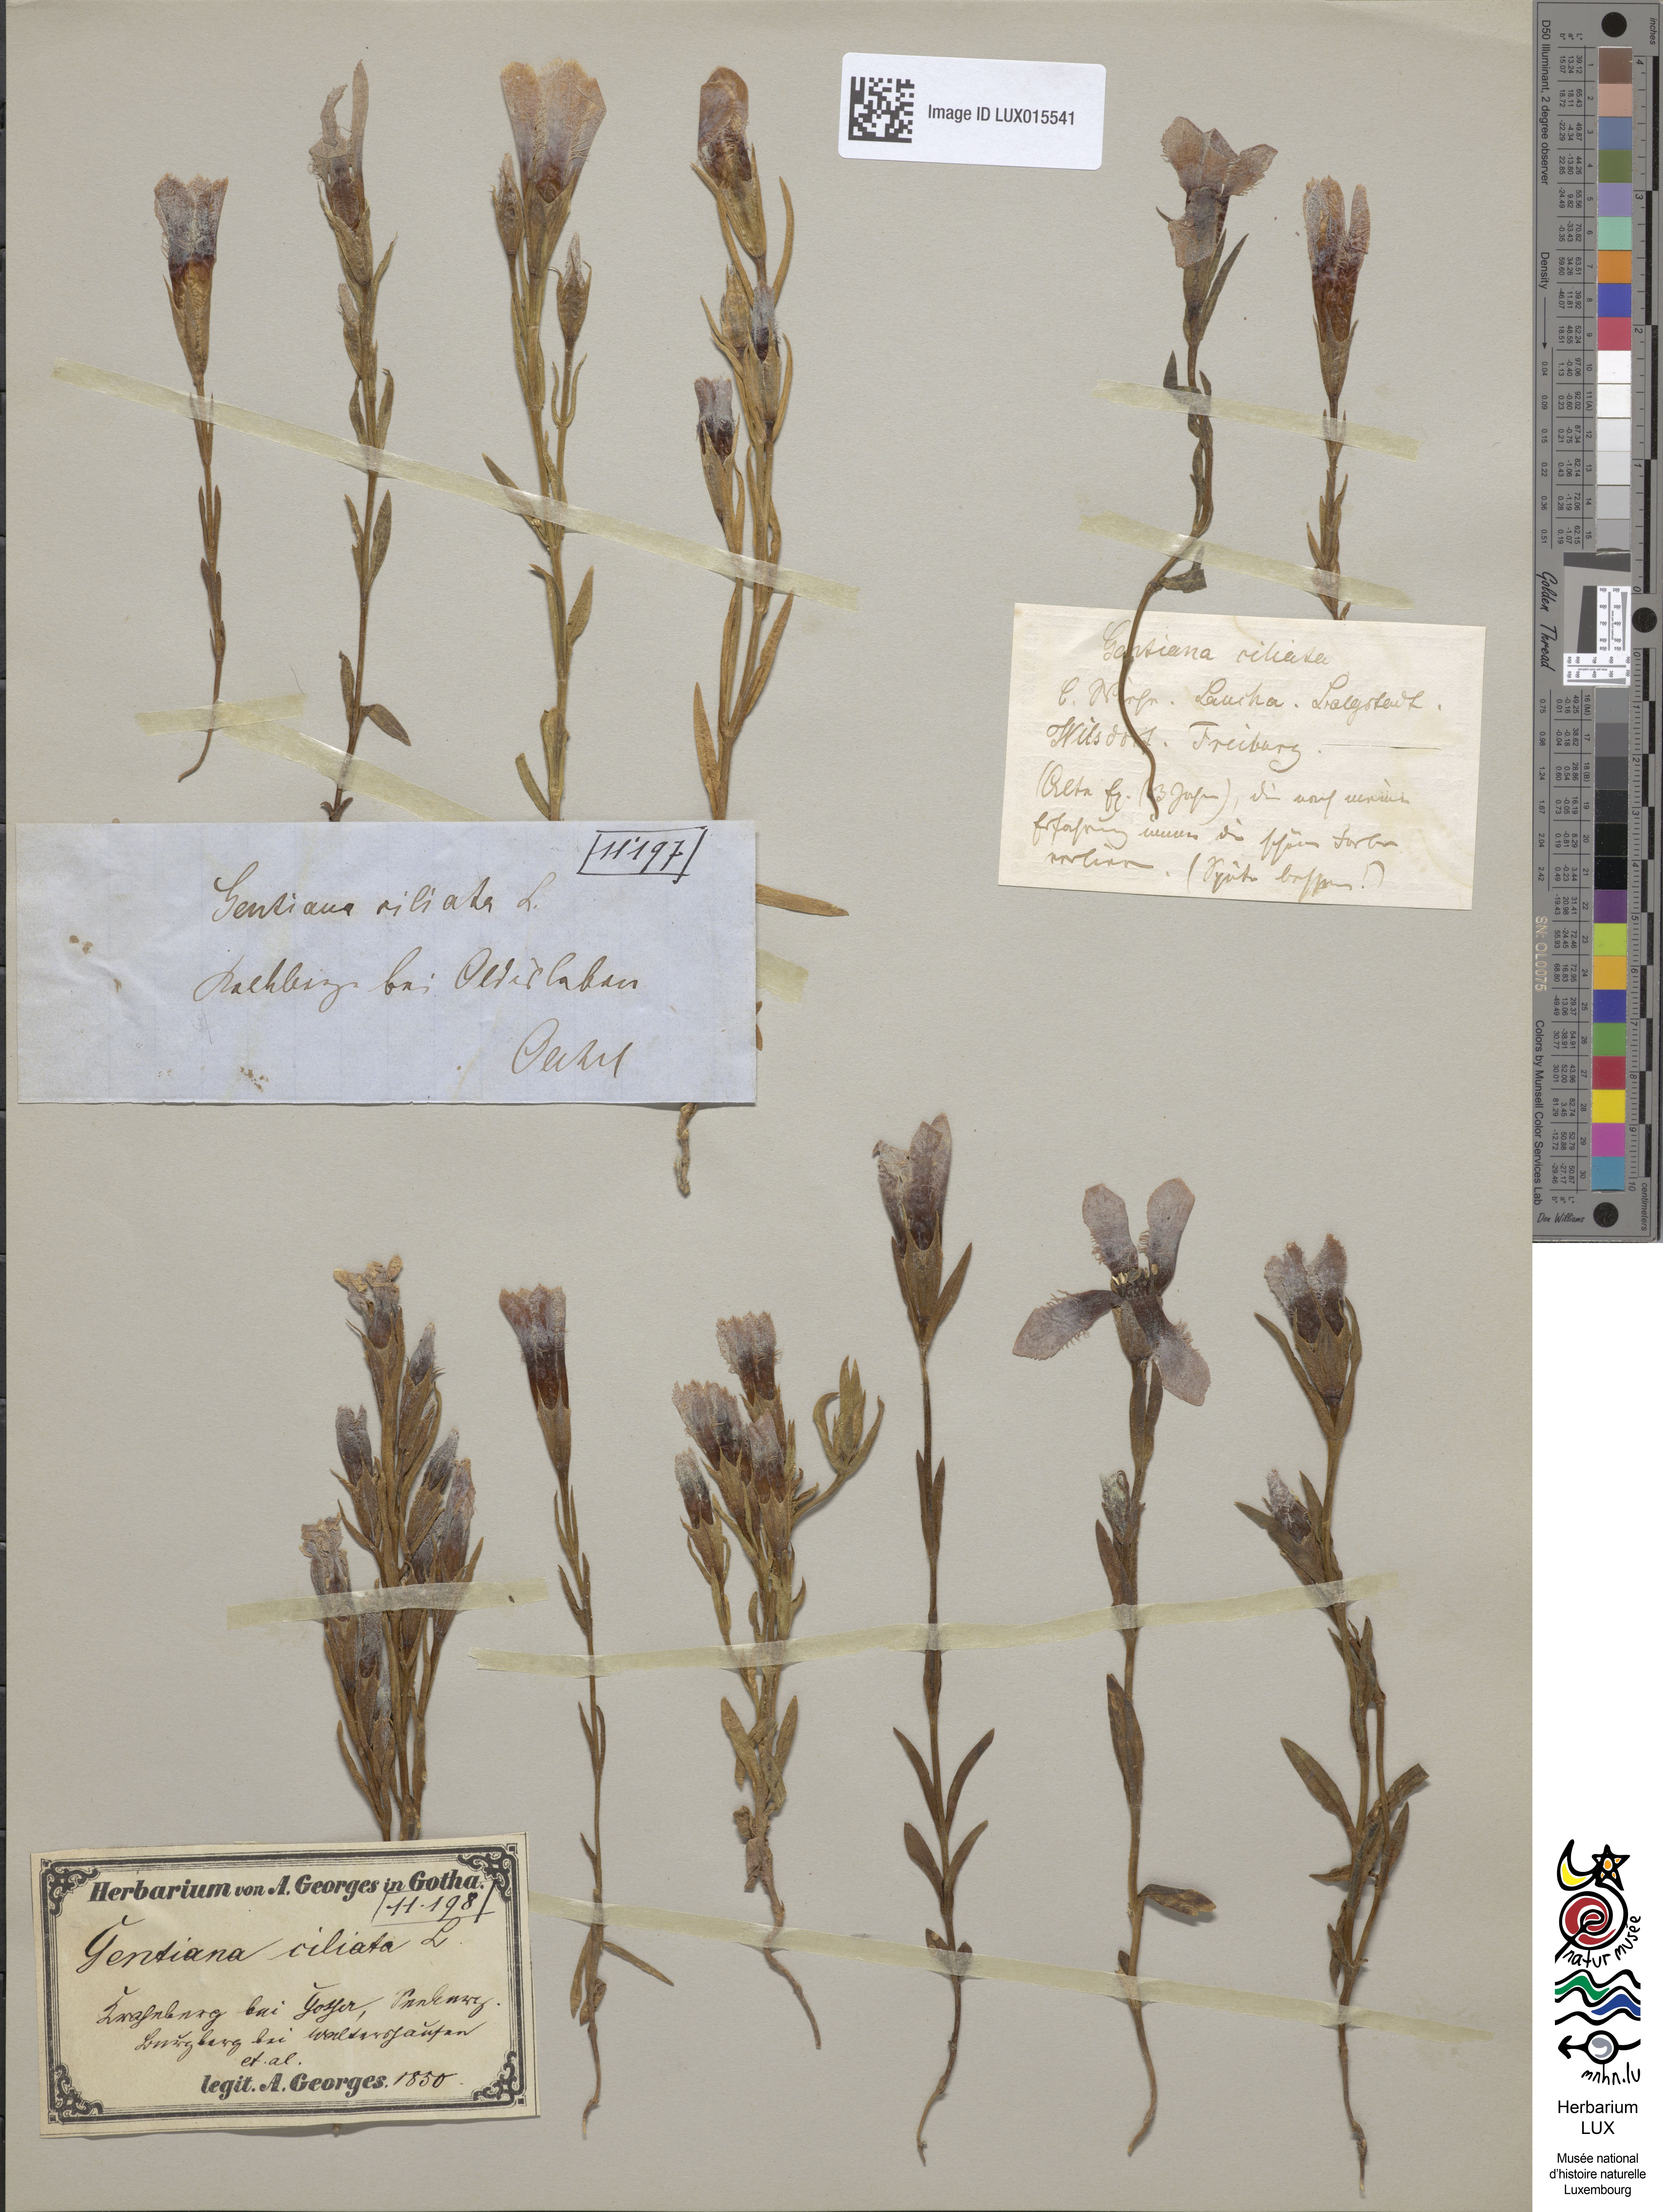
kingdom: Plantae
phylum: Tracheophyta
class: Magnoliopsida
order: Gentianales
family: Gentianaceae
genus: Gentianopsis
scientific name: Gentianopsis ciliata
